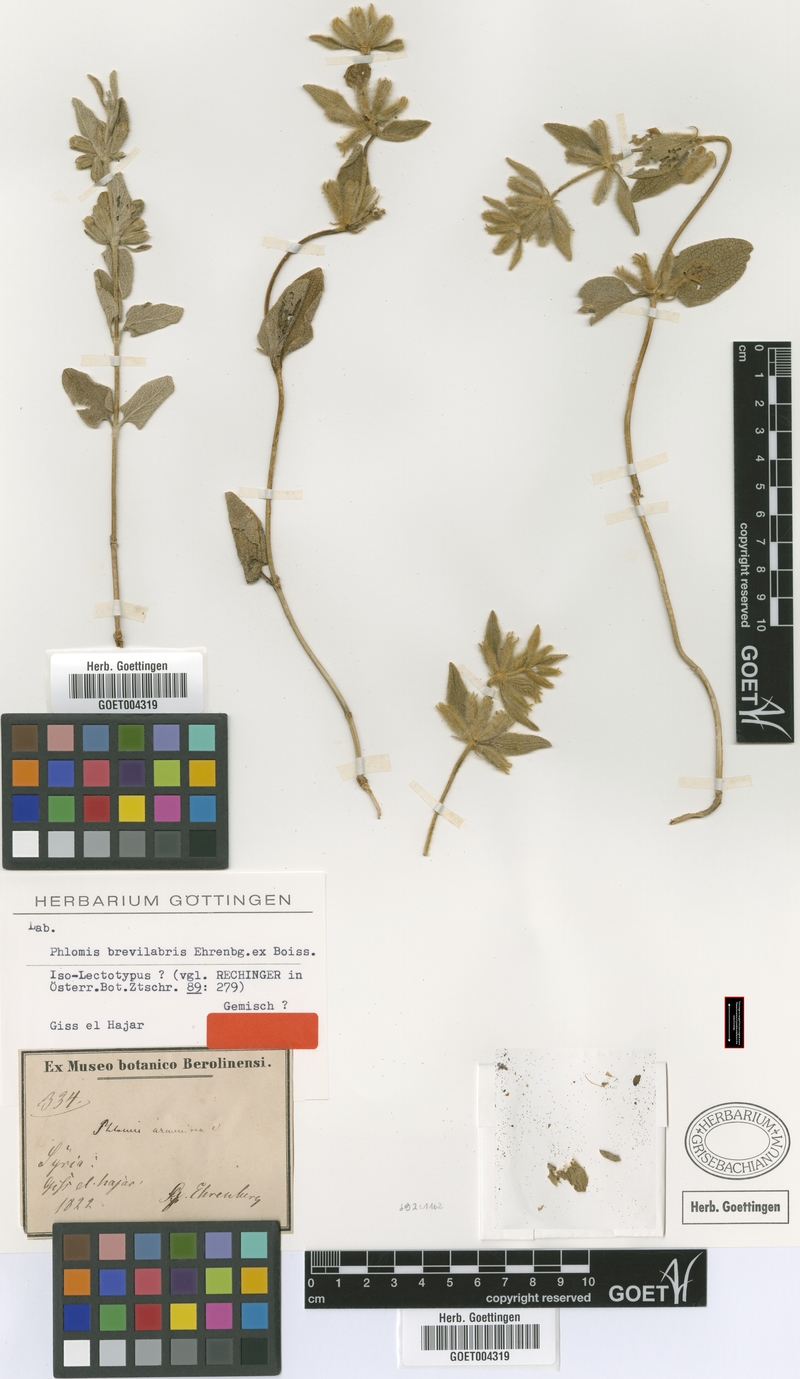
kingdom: Plantae
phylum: Tracheophyta
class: Magnoliopsida
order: Lamiales
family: Lamiaceae
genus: Phlomis
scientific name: Phlomis brevilabris
